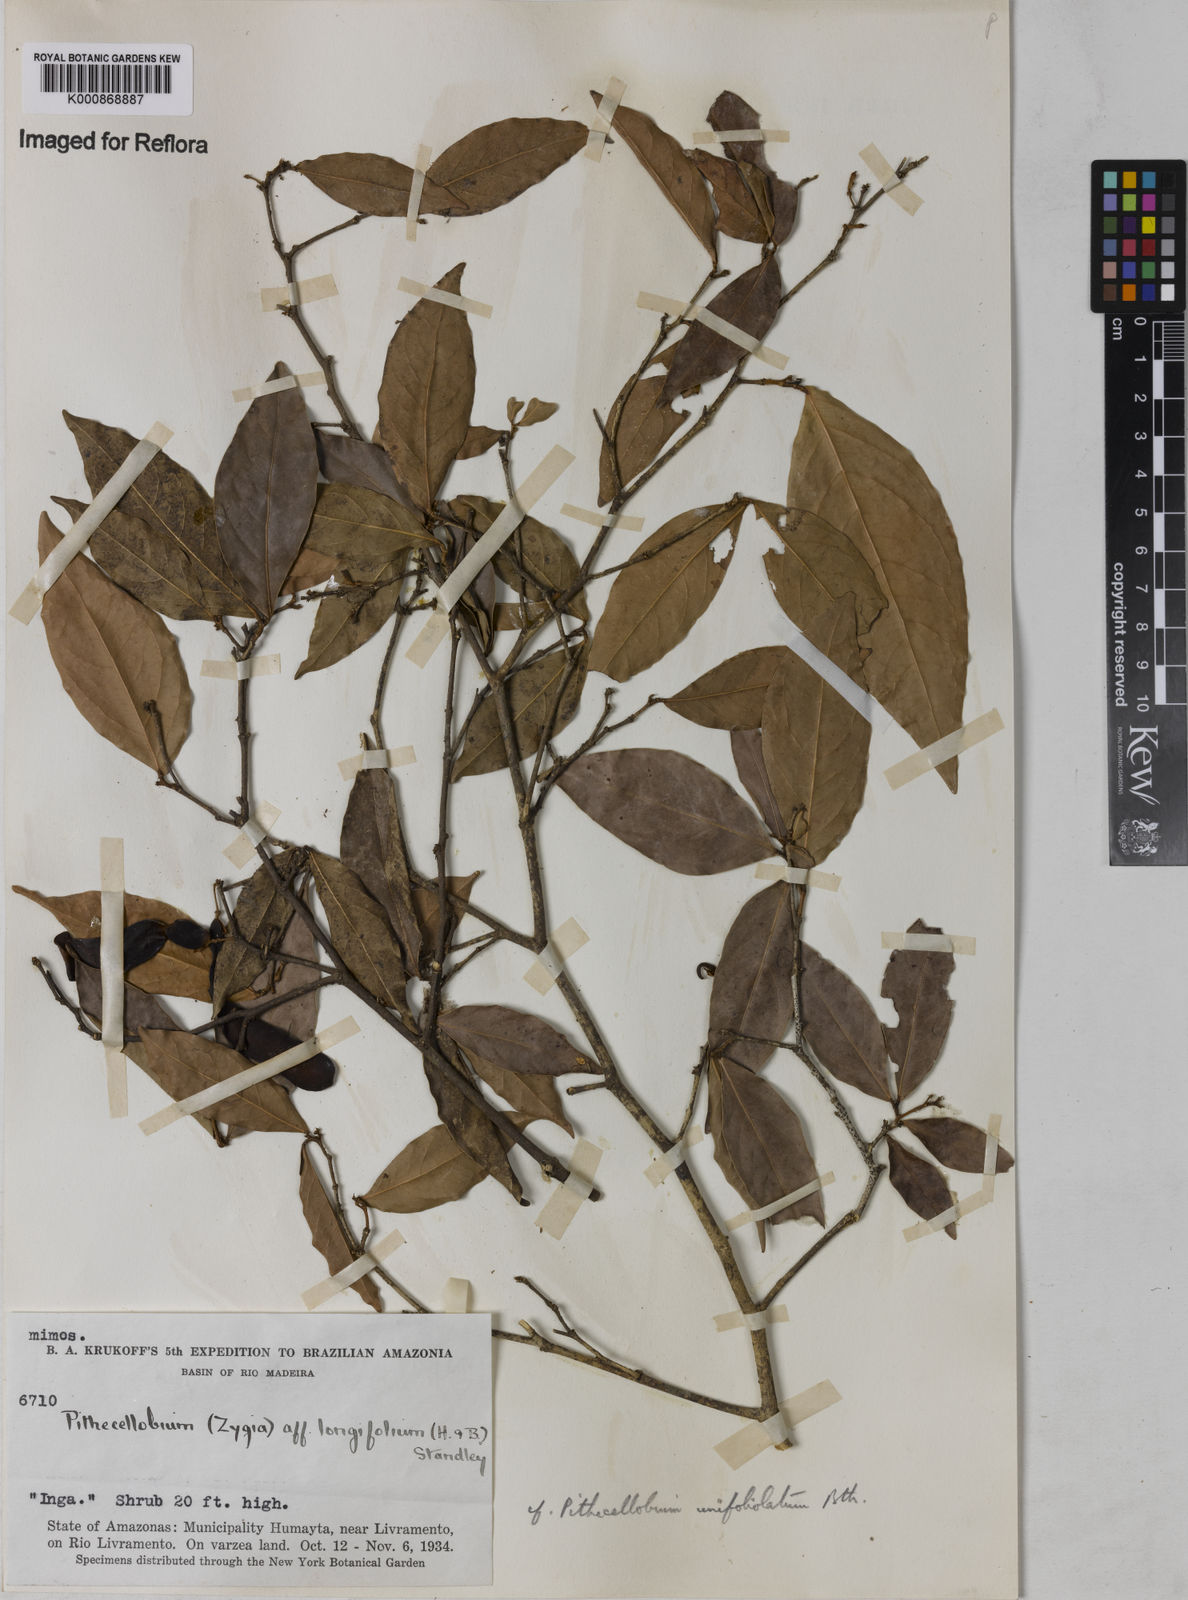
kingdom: Plantae
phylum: Tracheophyta
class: Magnoliopsida
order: Fabales
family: Fabaceae
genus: Zygia
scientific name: Zygia unifoliolata
